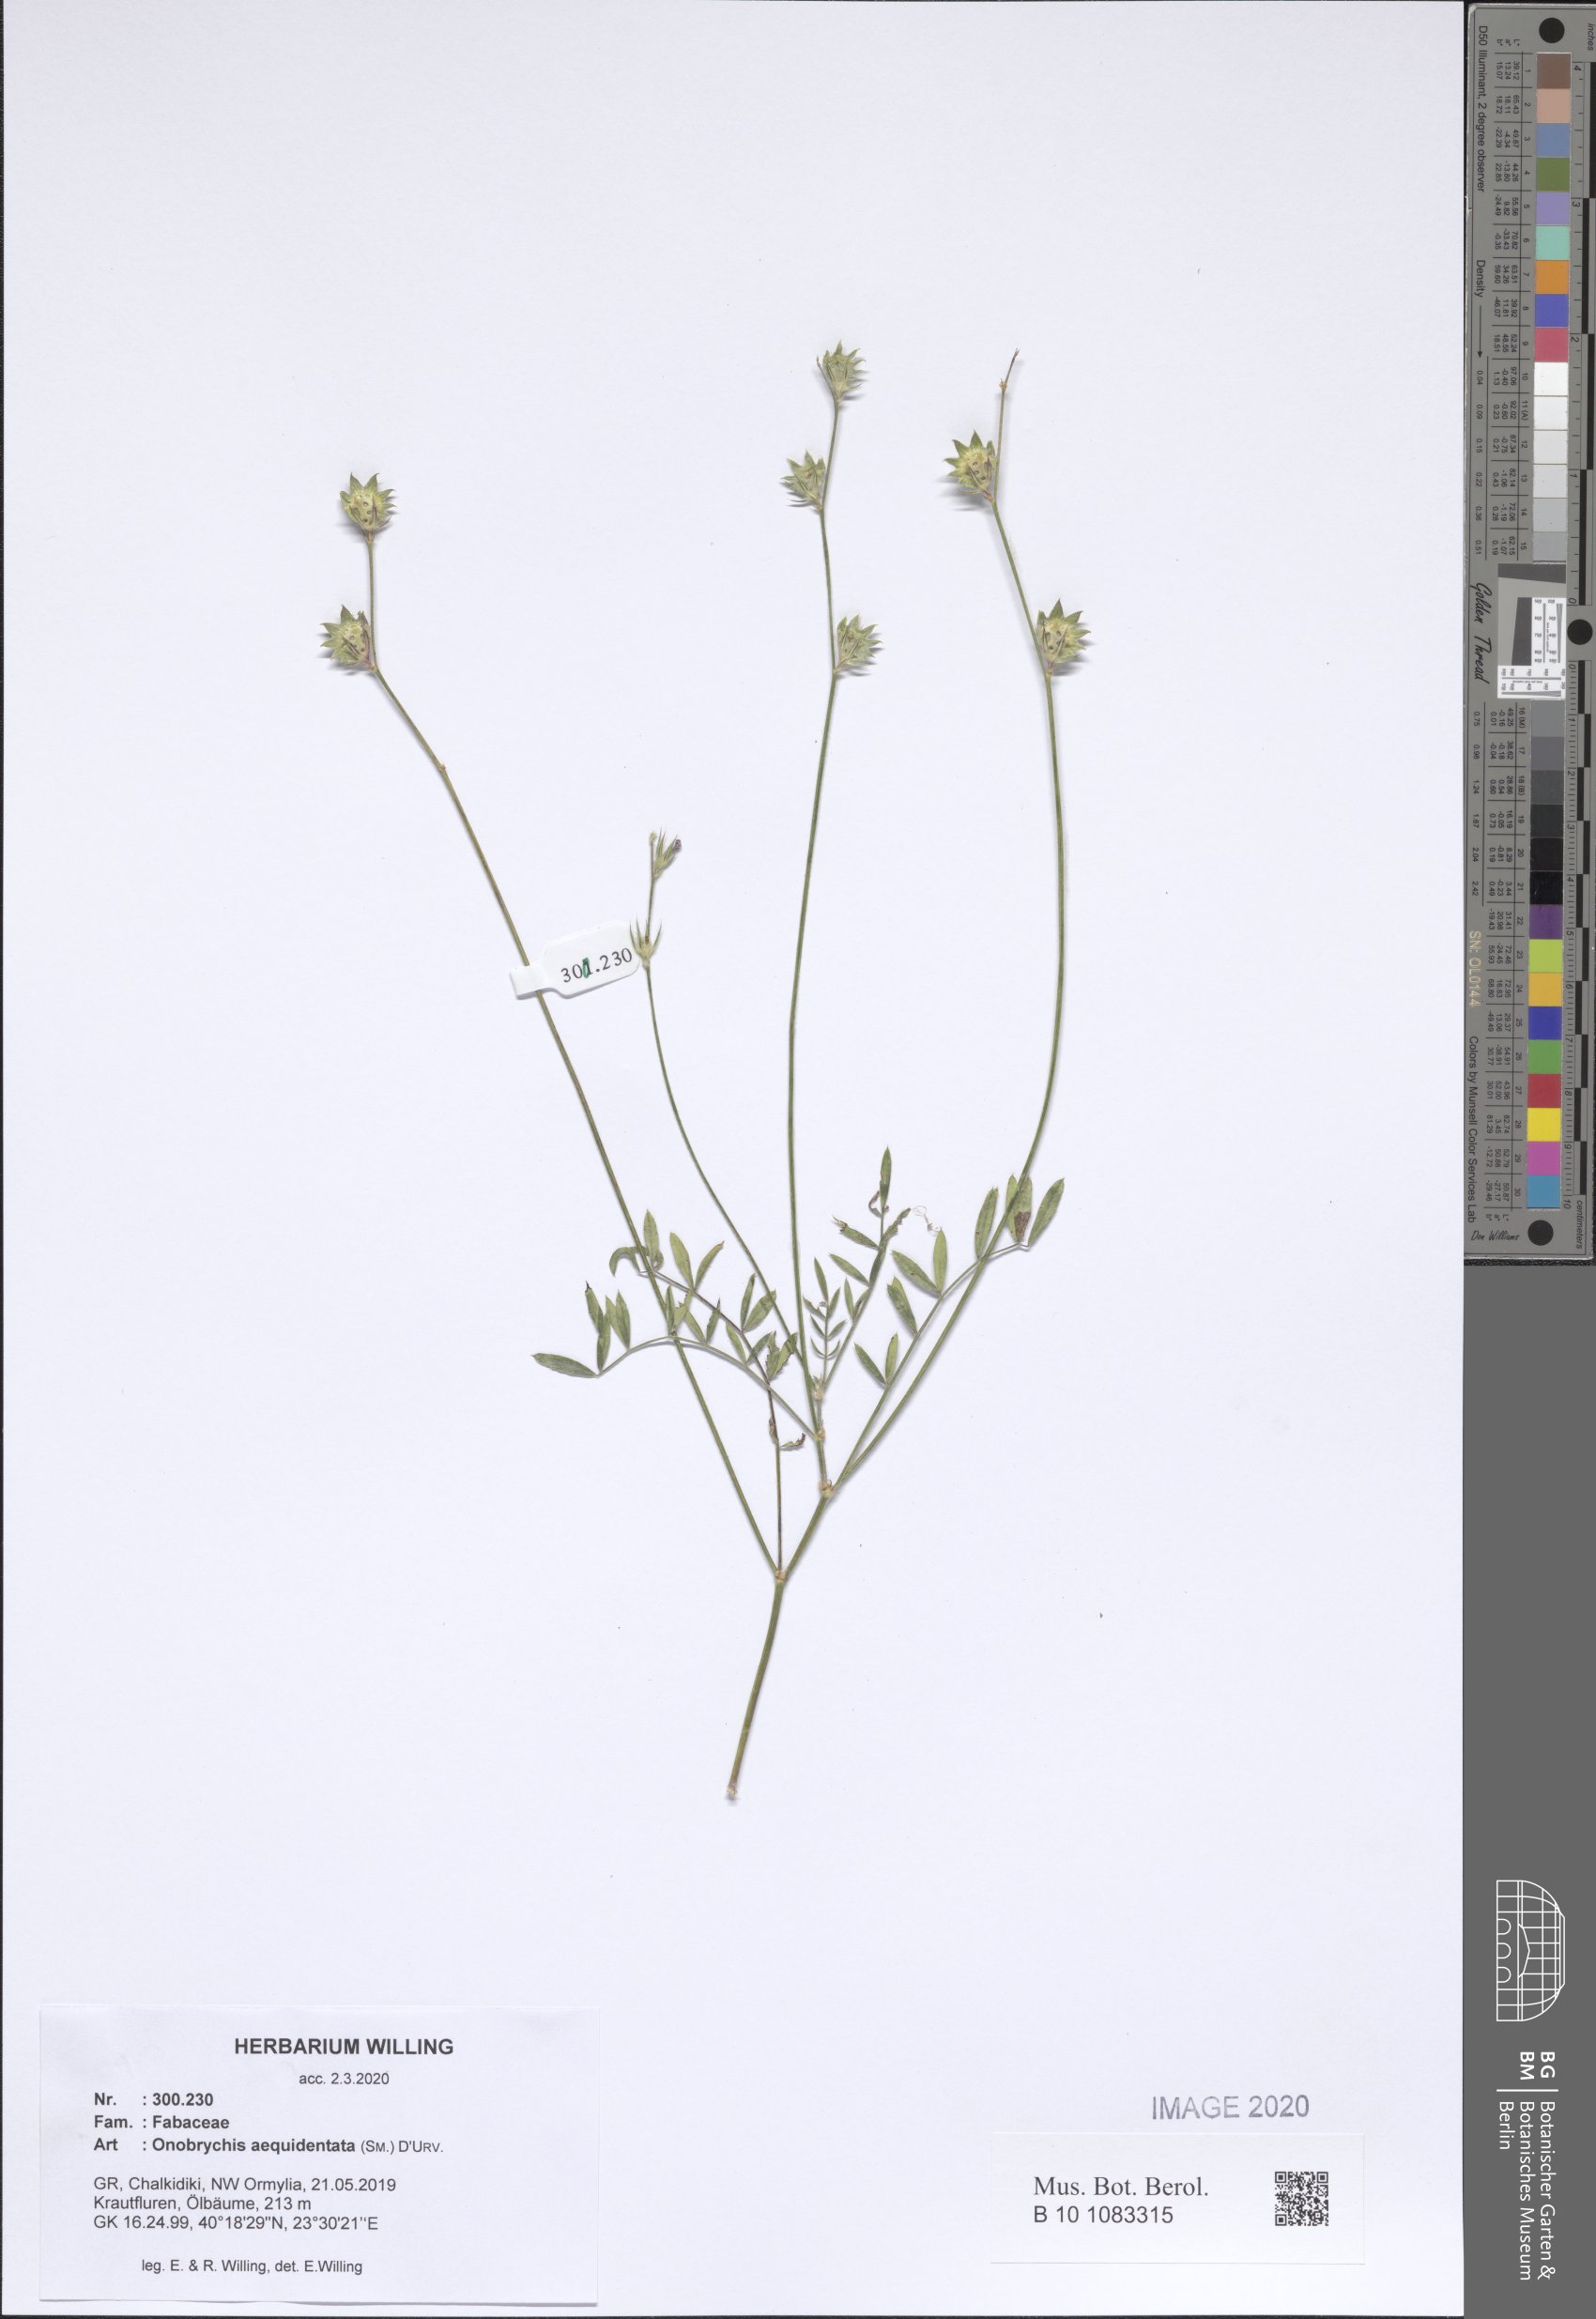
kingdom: Plantae
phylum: Tracheophyta
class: Magnoliopsida
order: Fabales
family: Fabaceae
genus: Onobrychis
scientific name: Onobrychis aequidentata
